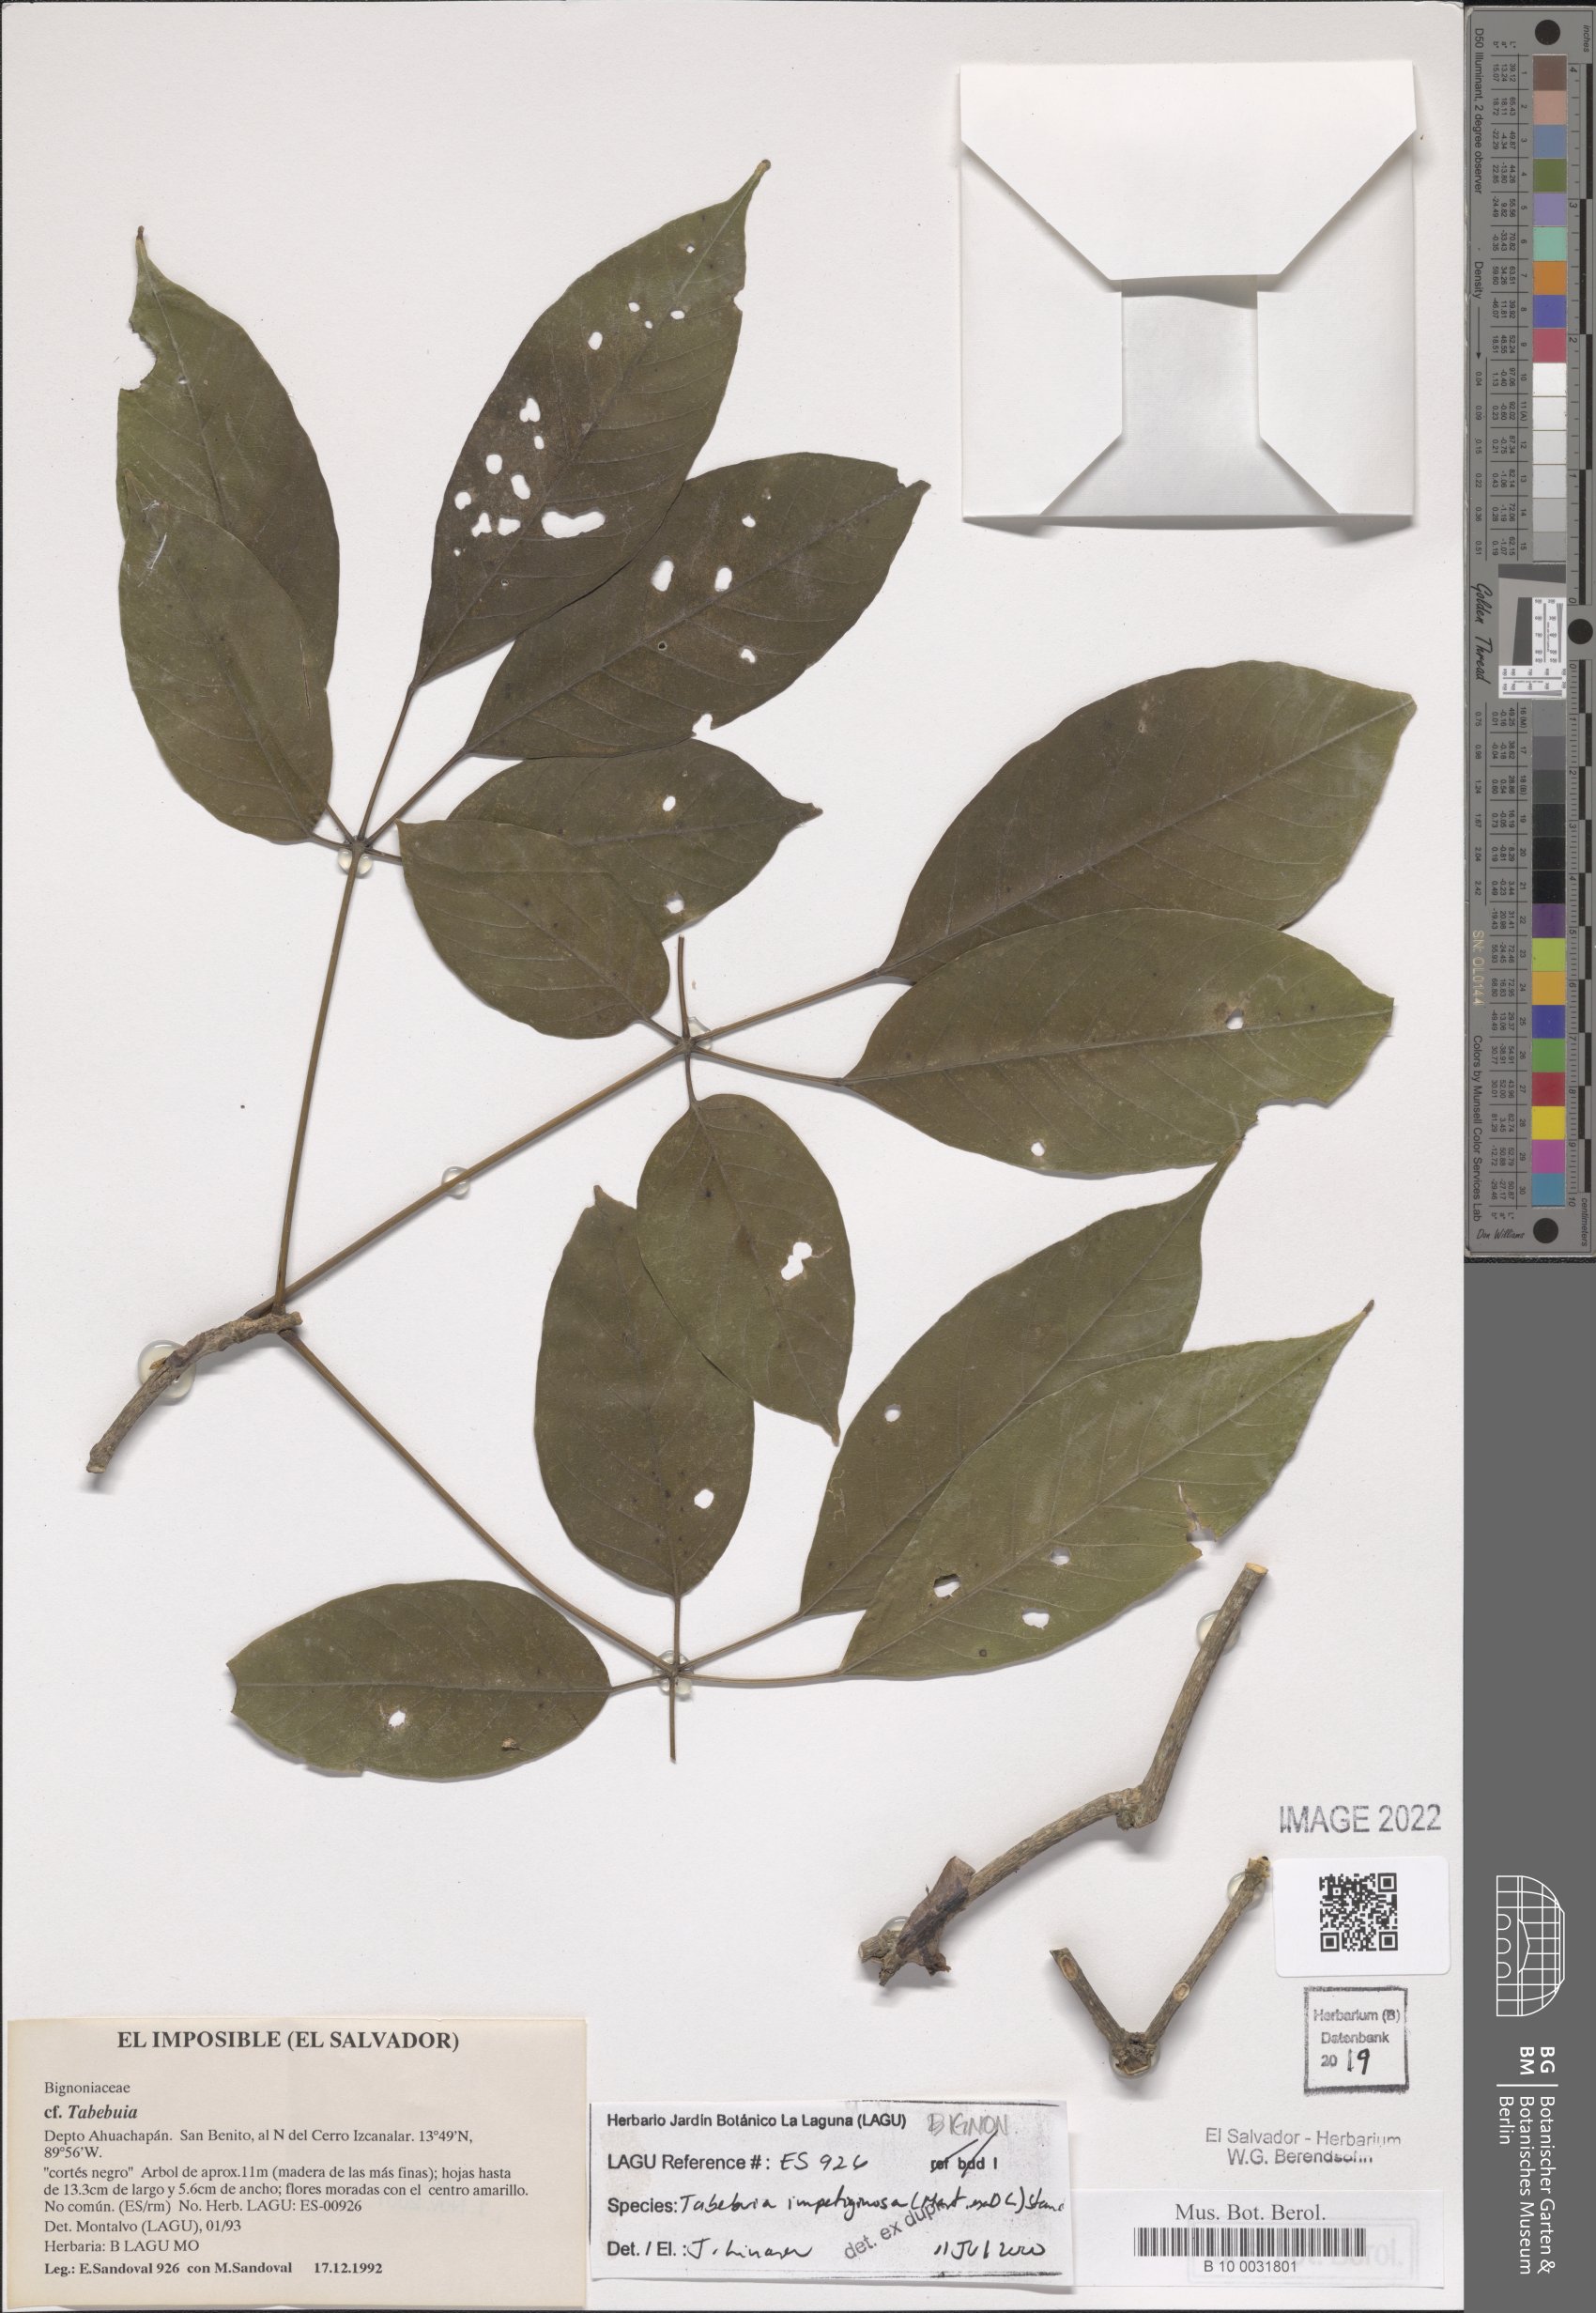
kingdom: Plantae
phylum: Tracheophyta
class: Magnoliopsida
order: Lamiales
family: Bignoniaceae
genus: Handroanthus
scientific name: Handroanthus impetiginosum
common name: Pink trumpet tree
